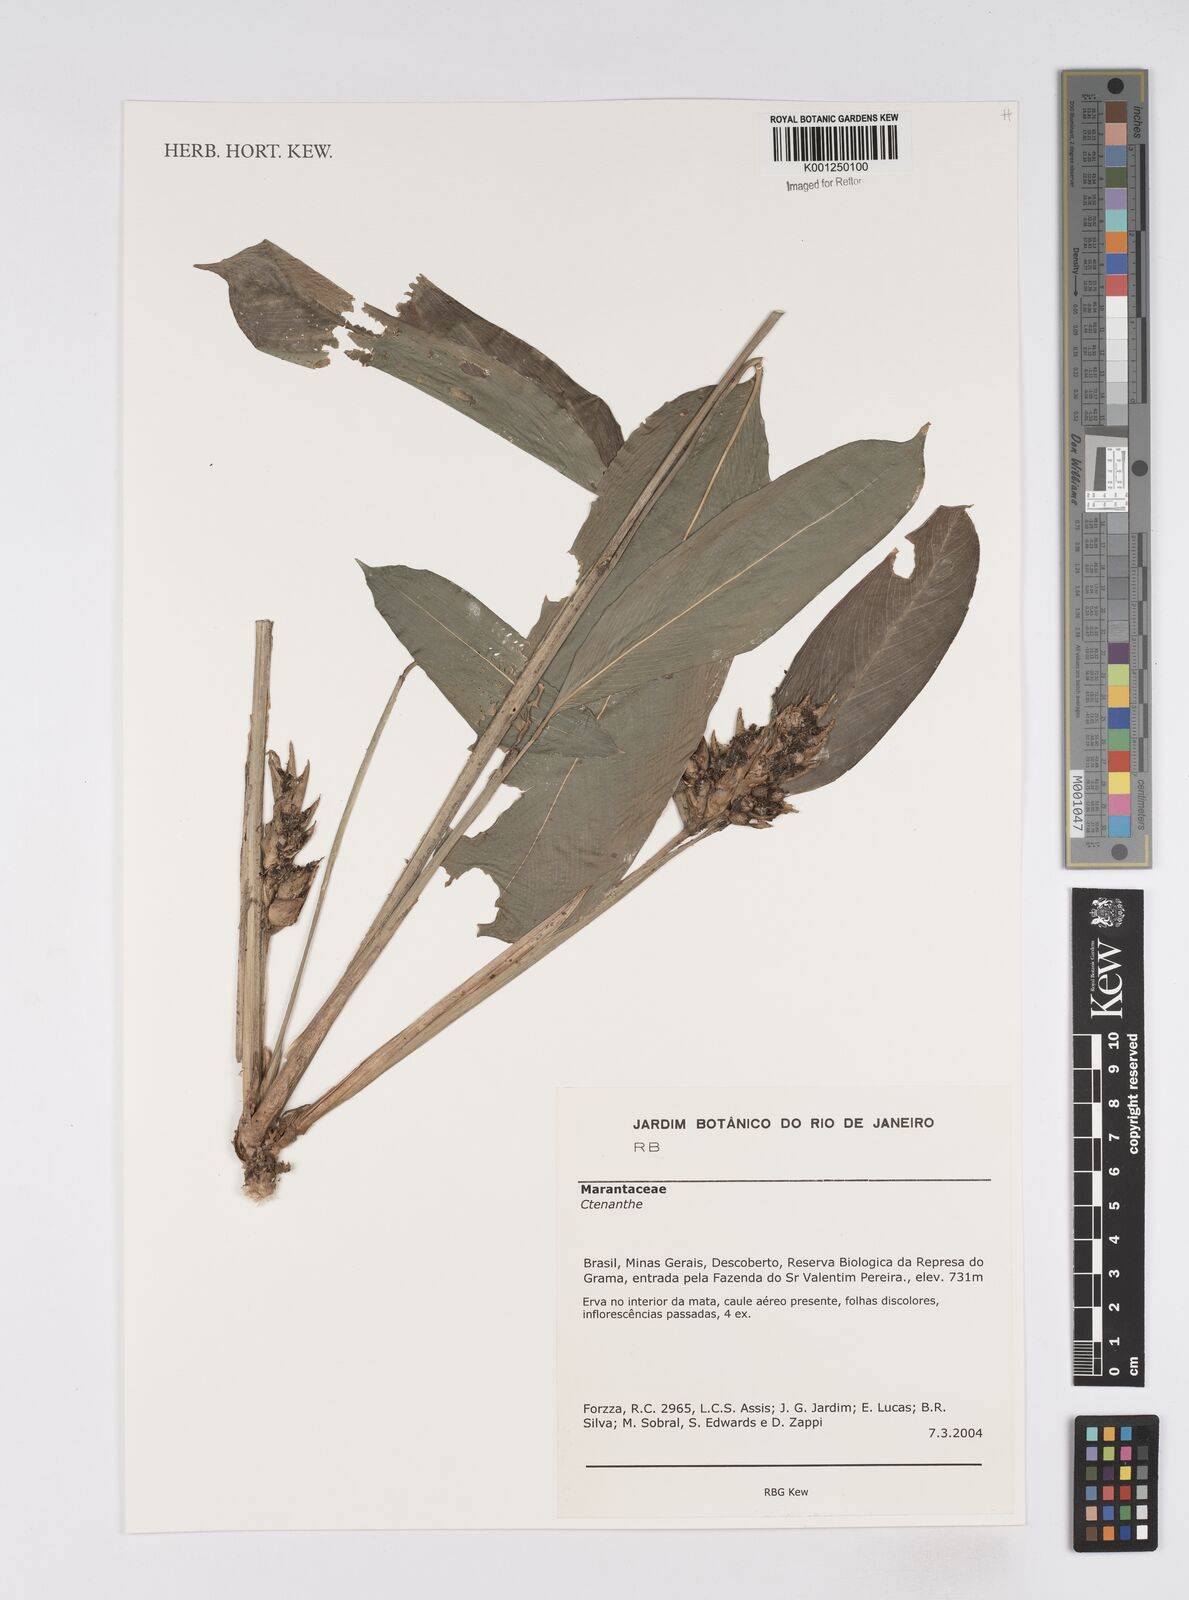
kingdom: Plantae
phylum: Tracheophyta
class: Liliopsida
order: Zingiberales
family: Marantaceae
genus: Ctenanthe
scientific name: Ctenanthe
